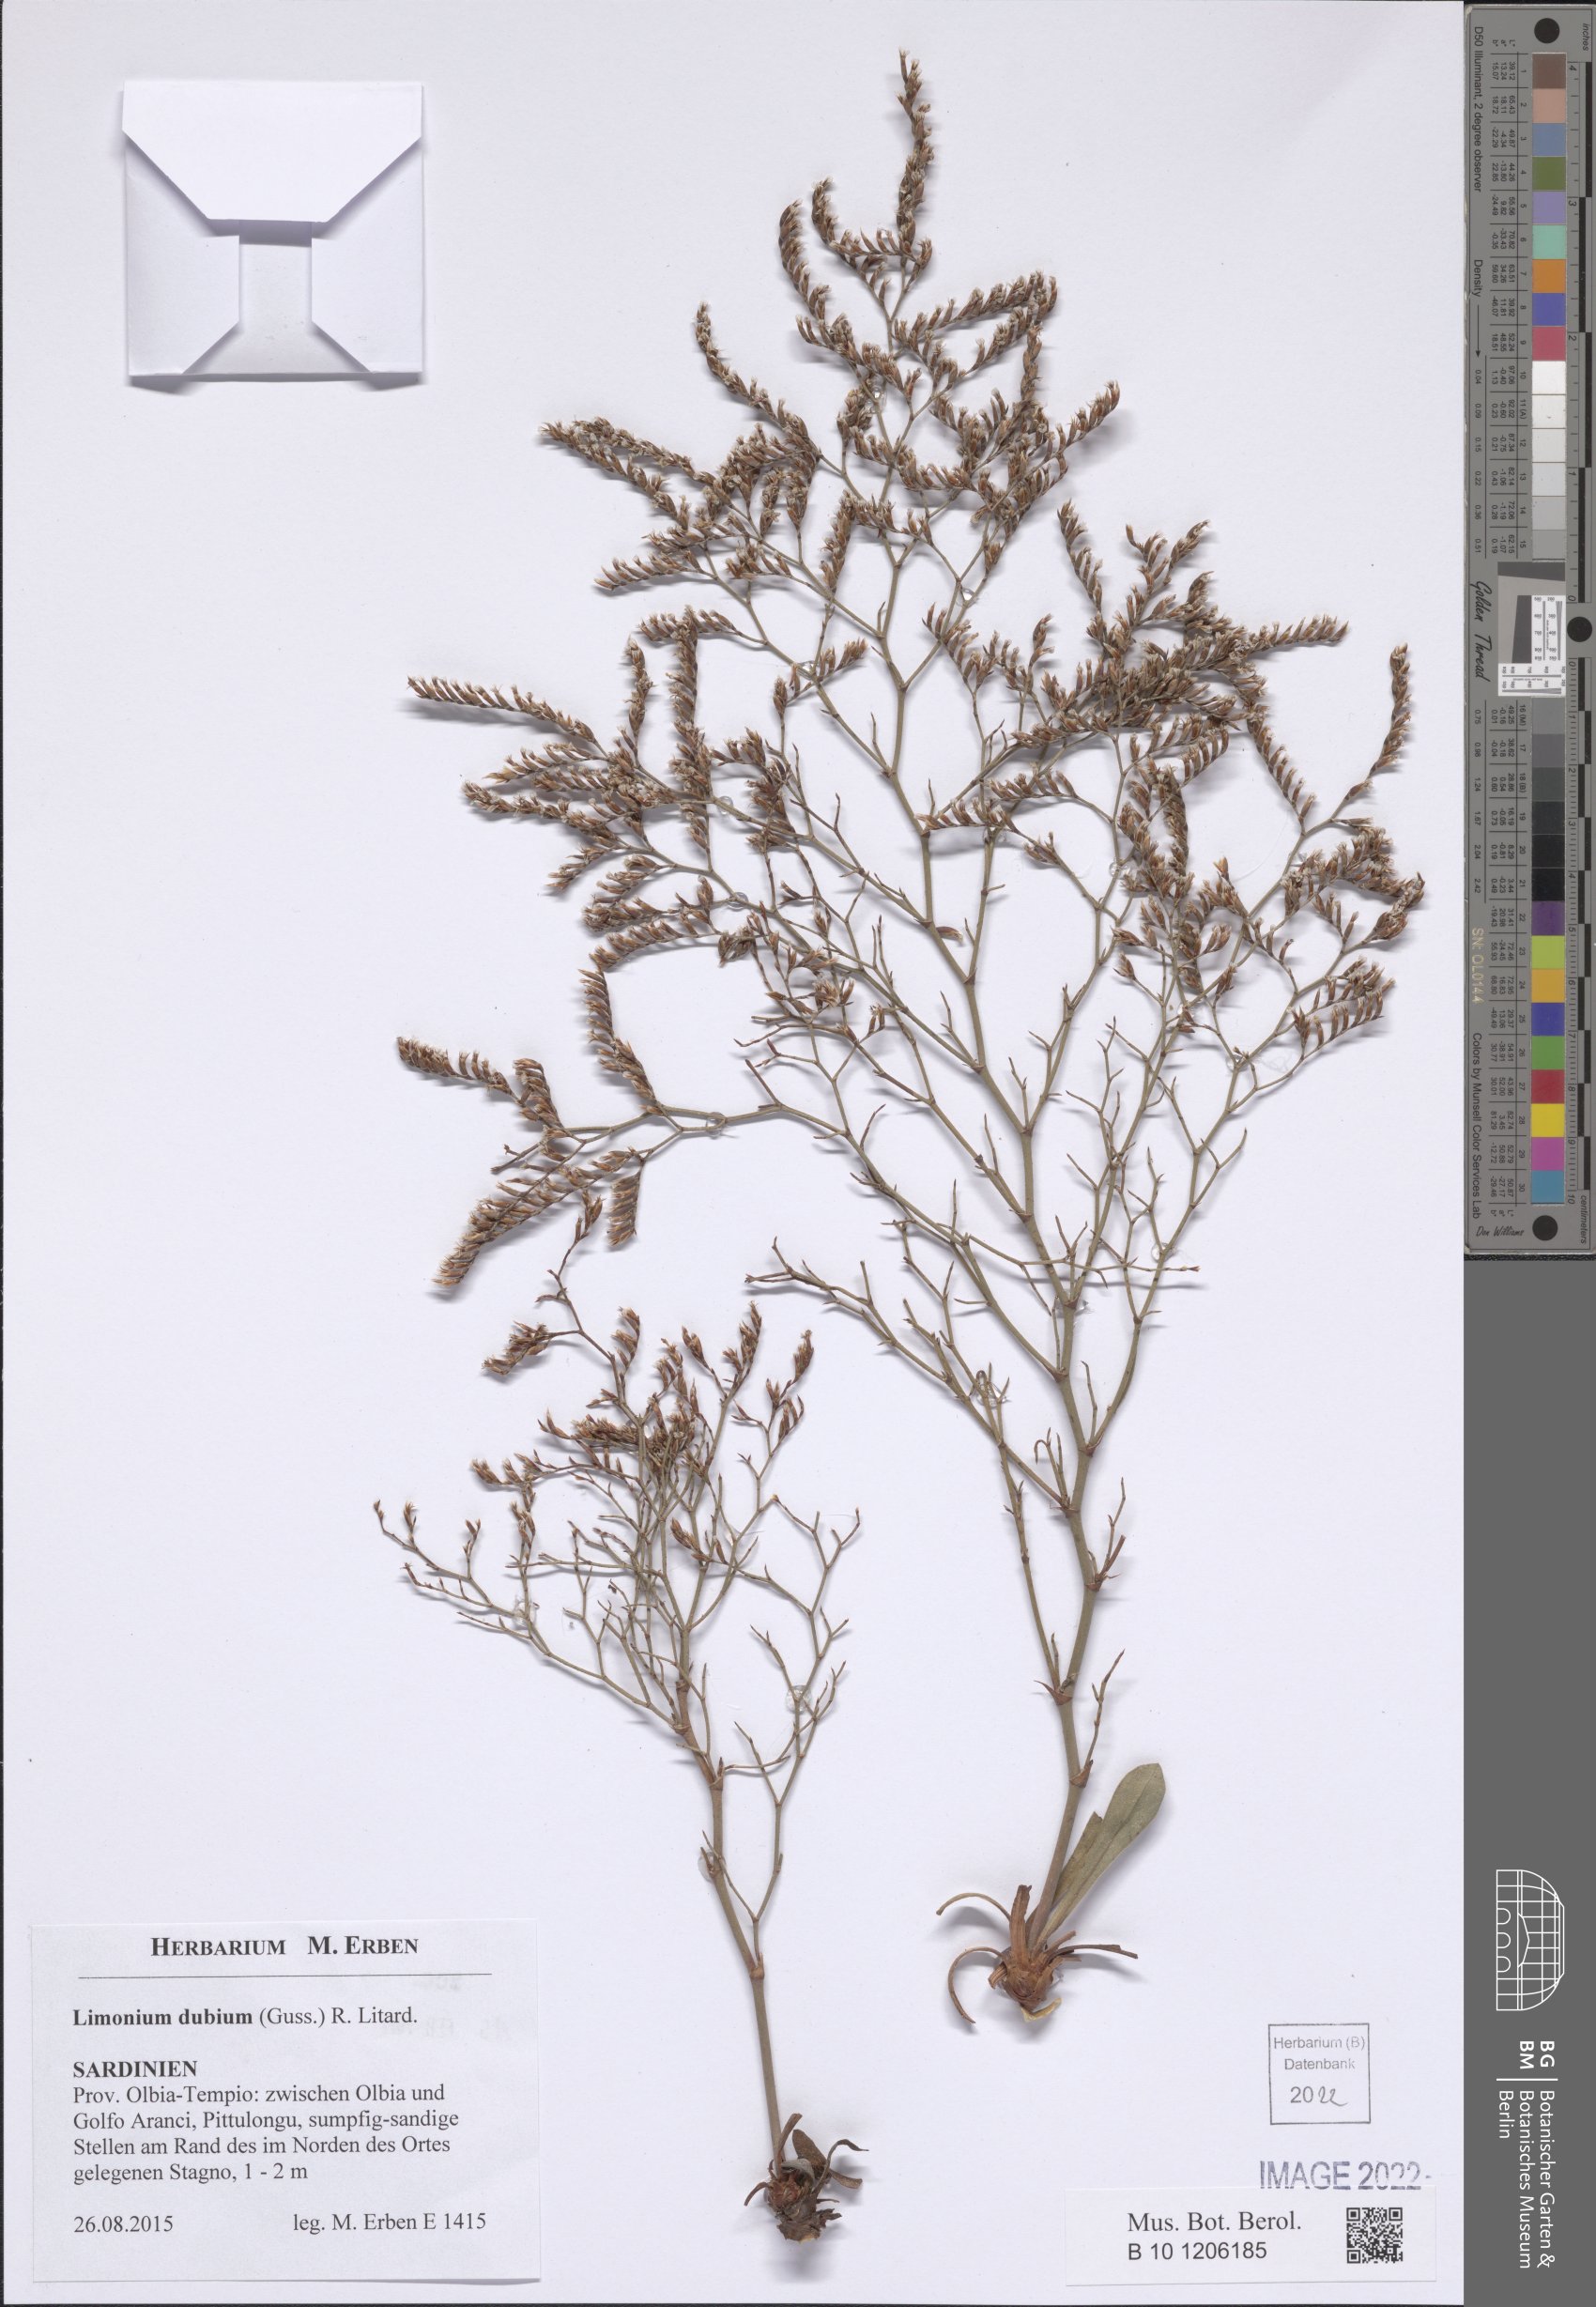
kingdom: Plantae
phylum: Tracheophyta
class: Magnoliopsida
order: Caryophyllales
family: Plumbaginaceae
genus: Limonium
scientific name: Limonium dubium
